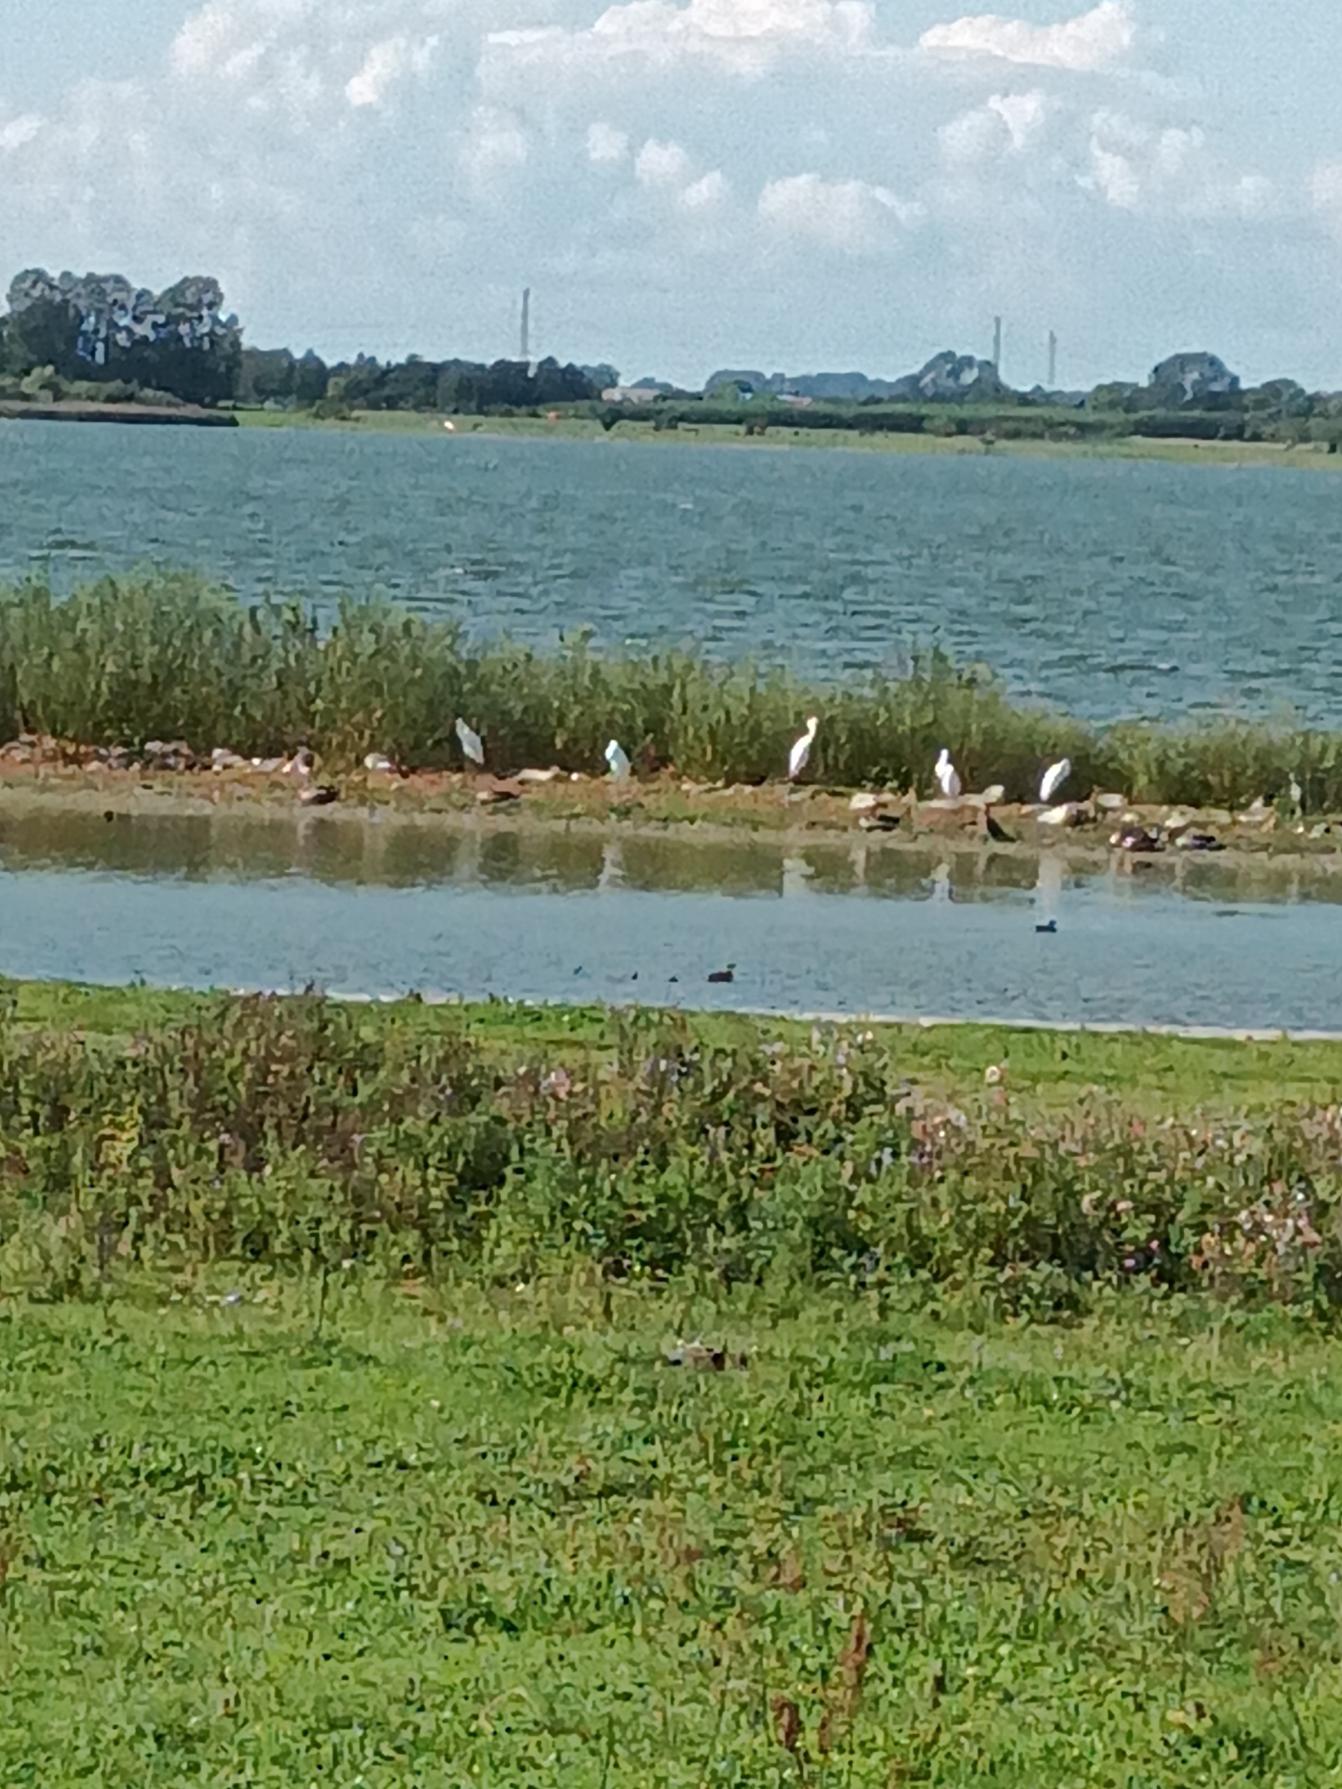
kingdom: Animalia
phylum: Chordata
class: Aves
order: Pelecaniformes
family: Ardeidae
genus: Ardea
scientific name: Ardea alba
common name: Sølvhejre
